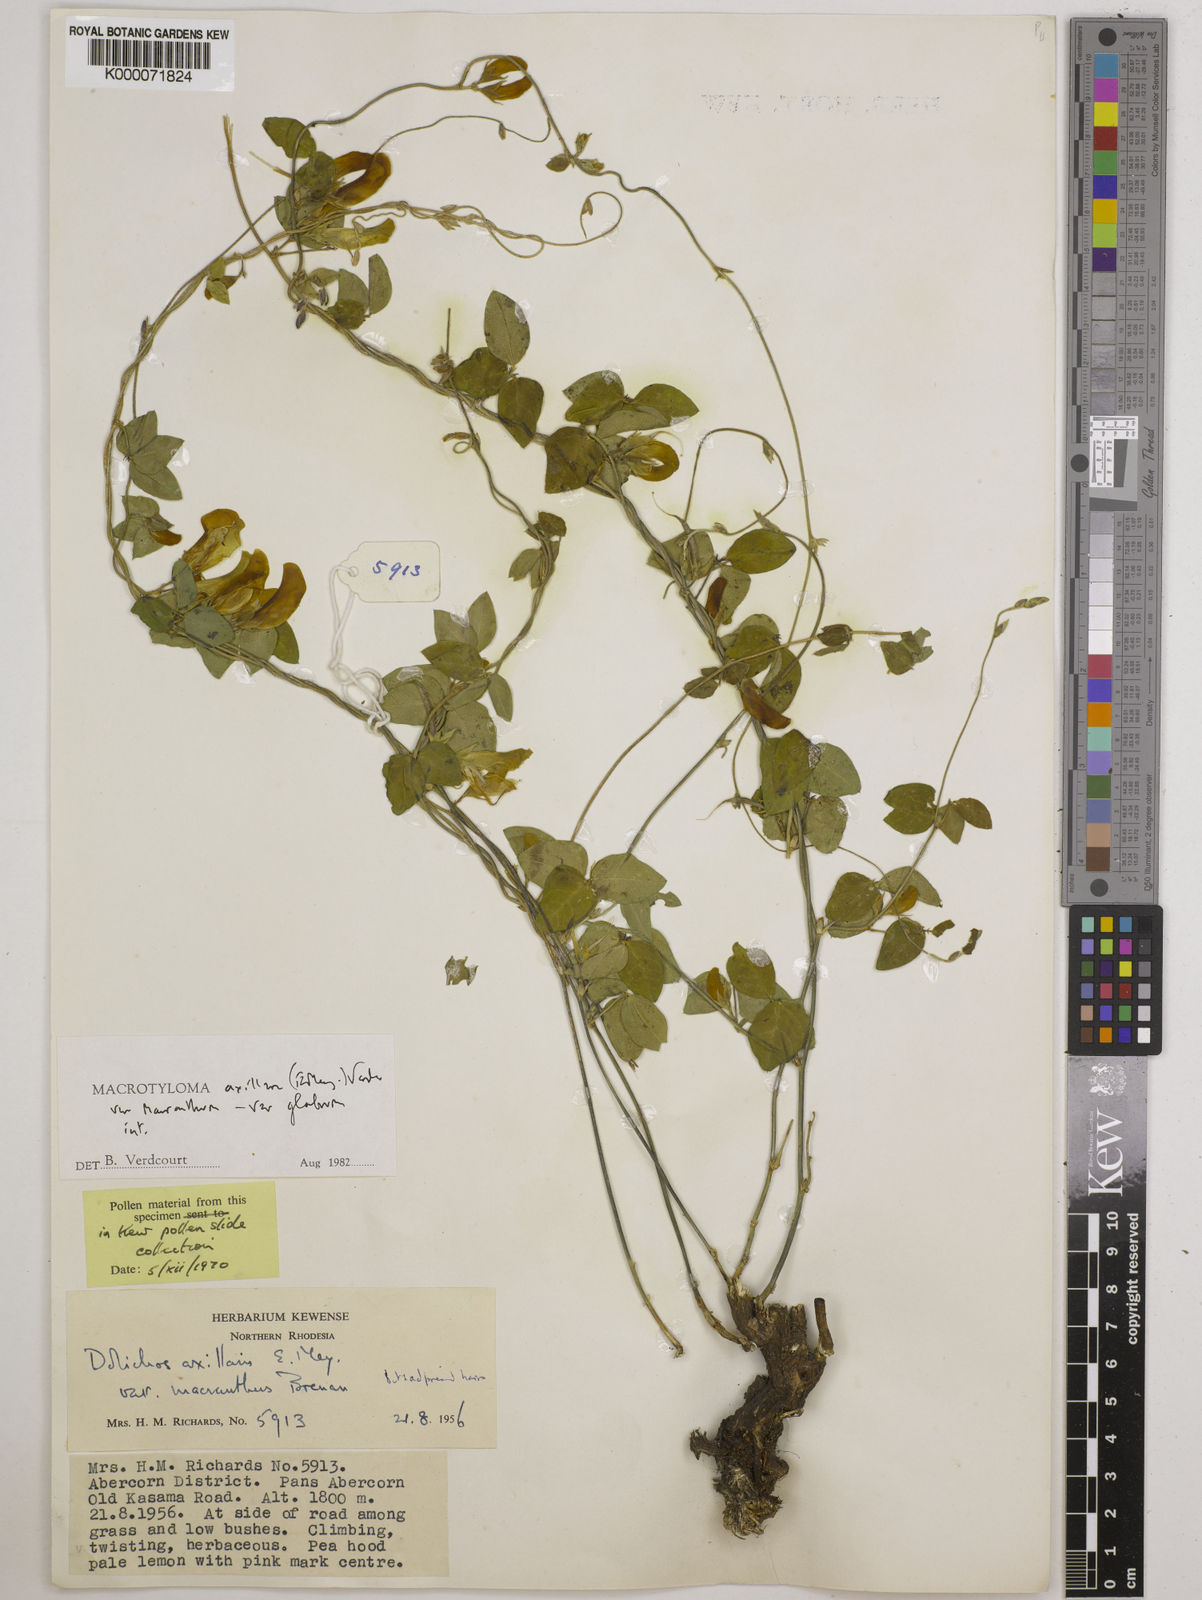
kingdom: Plantae
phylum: Tracheophyta
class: Magnoliopsida
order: Fabales
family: Fabaceae
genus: Macrotyloma
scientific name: Macrotyloma axillare
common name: Perennial horsegram
